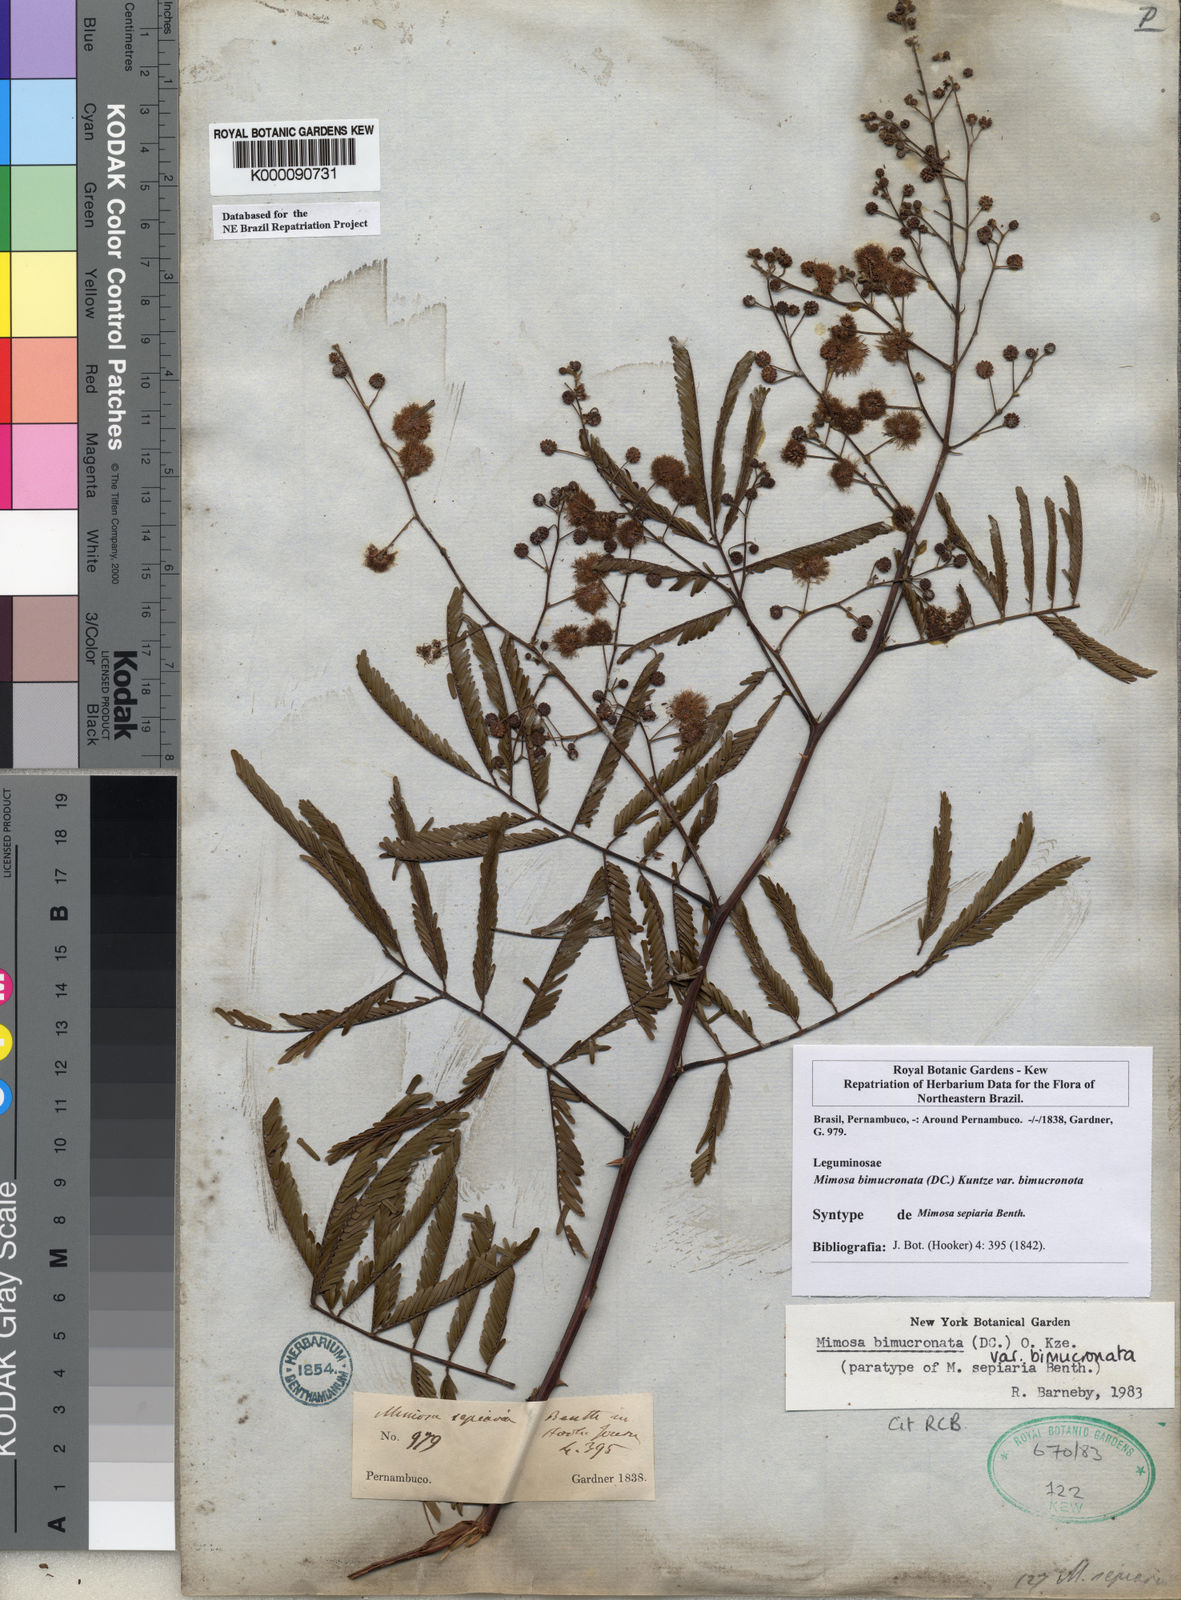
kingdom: Plantae
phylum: Tracheophyta
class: Magnoliopsida
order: Fabales
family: Fabaceae
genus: Mimosa
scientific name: Mimosa bimucronata
